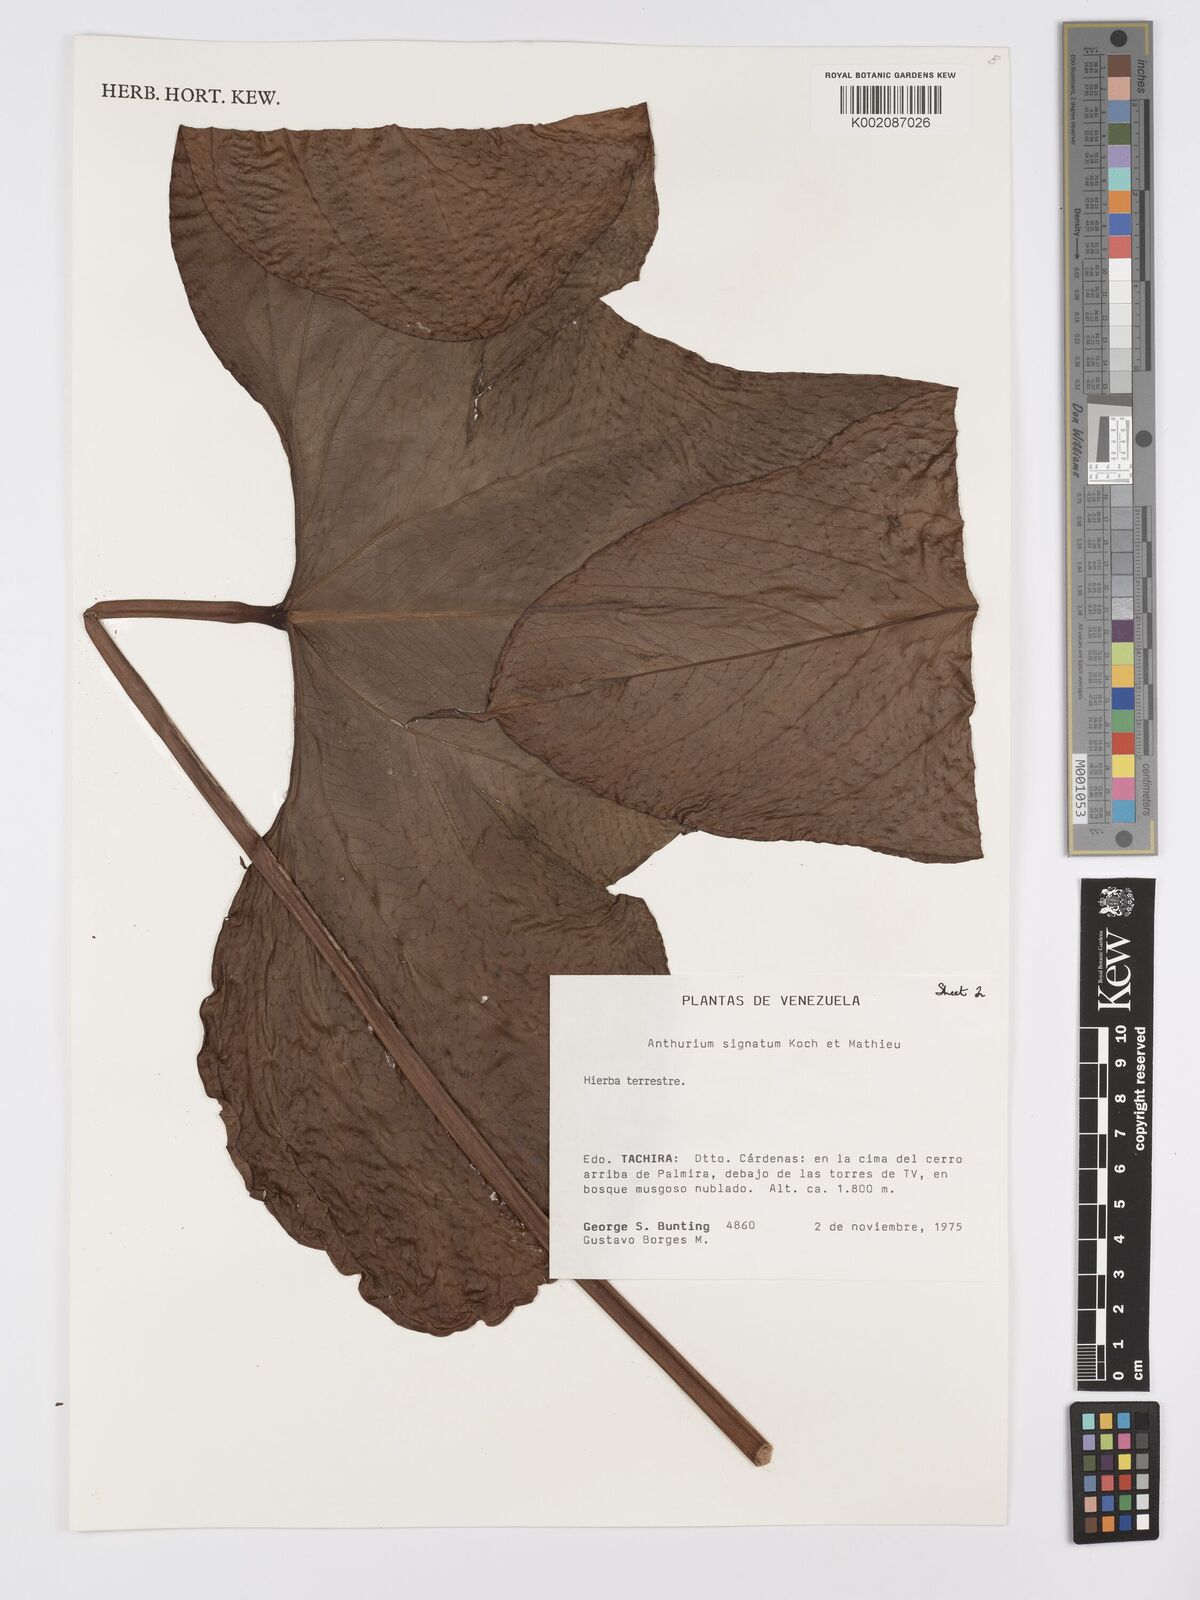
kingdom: Plantae
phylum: Tracheophyta
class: Liliopsida
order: Alismatales
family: Araceae
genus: Anthurium
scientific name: Anthurium signatum
